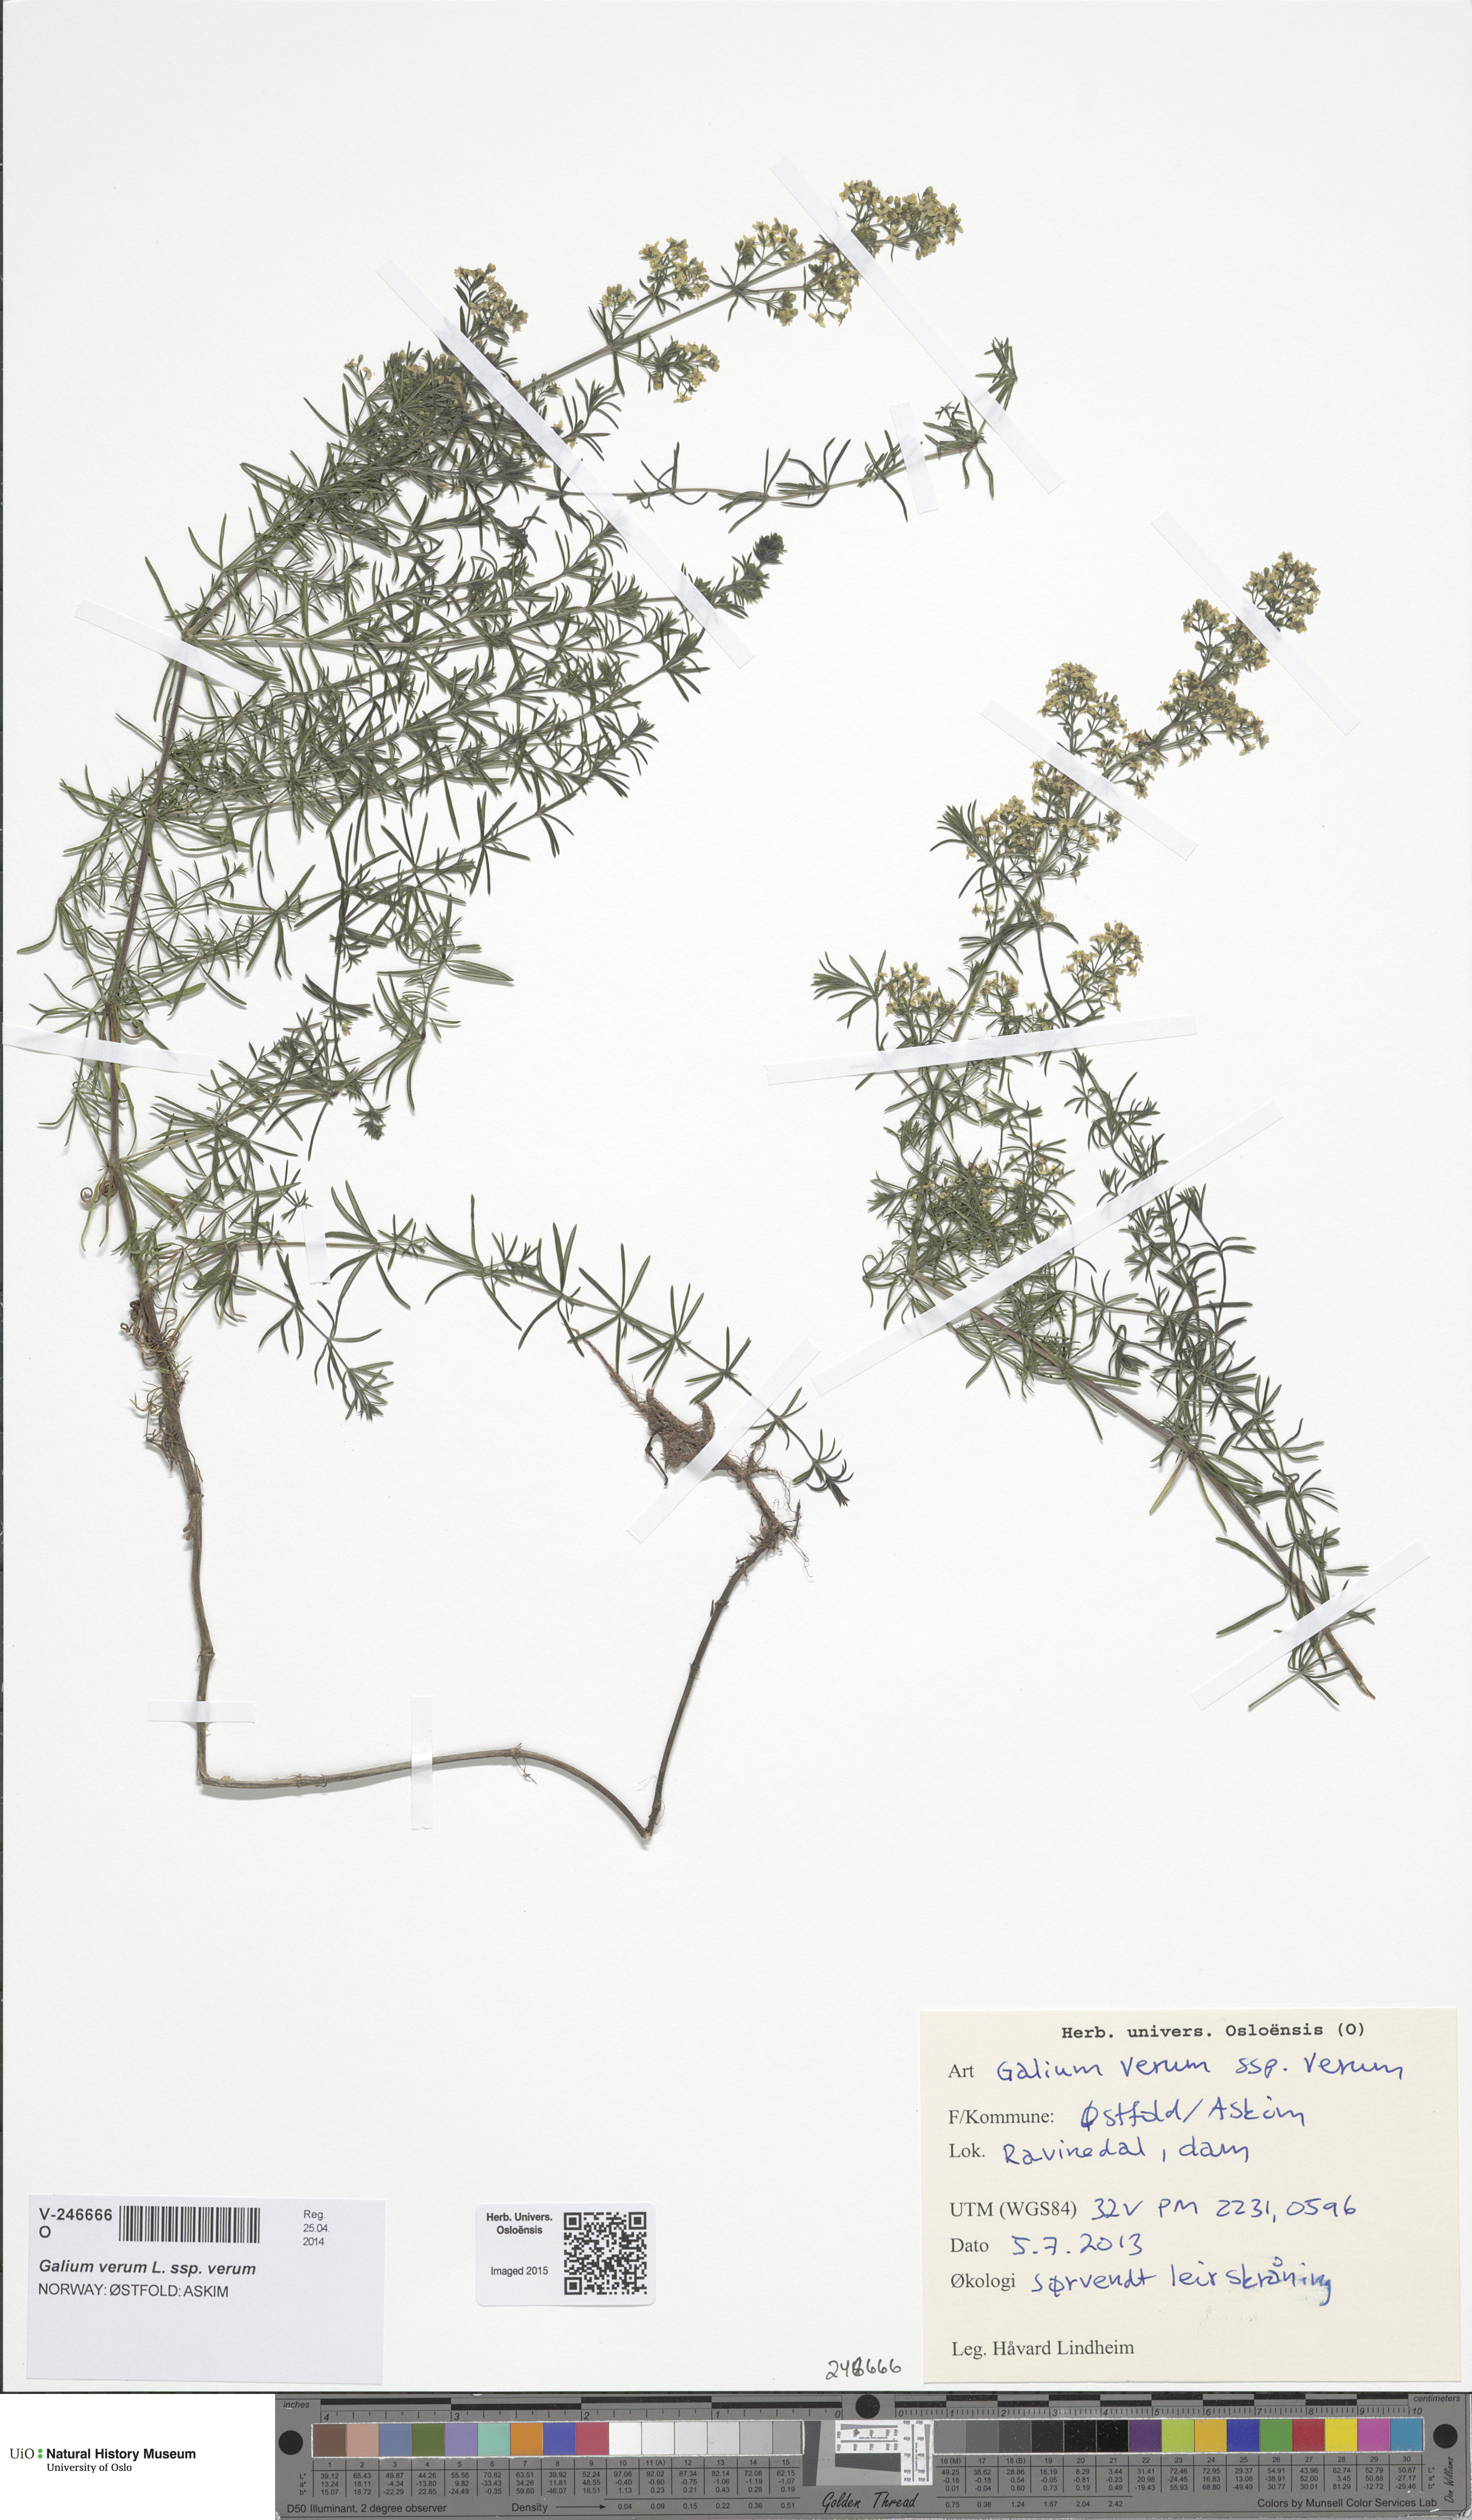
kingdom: Plantae
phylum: Tracheophyta
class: Magnoliopsida
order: Gentianales
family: Rubiaceae
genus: Galium
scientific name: Galium verum
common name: Lady's bedstraw
